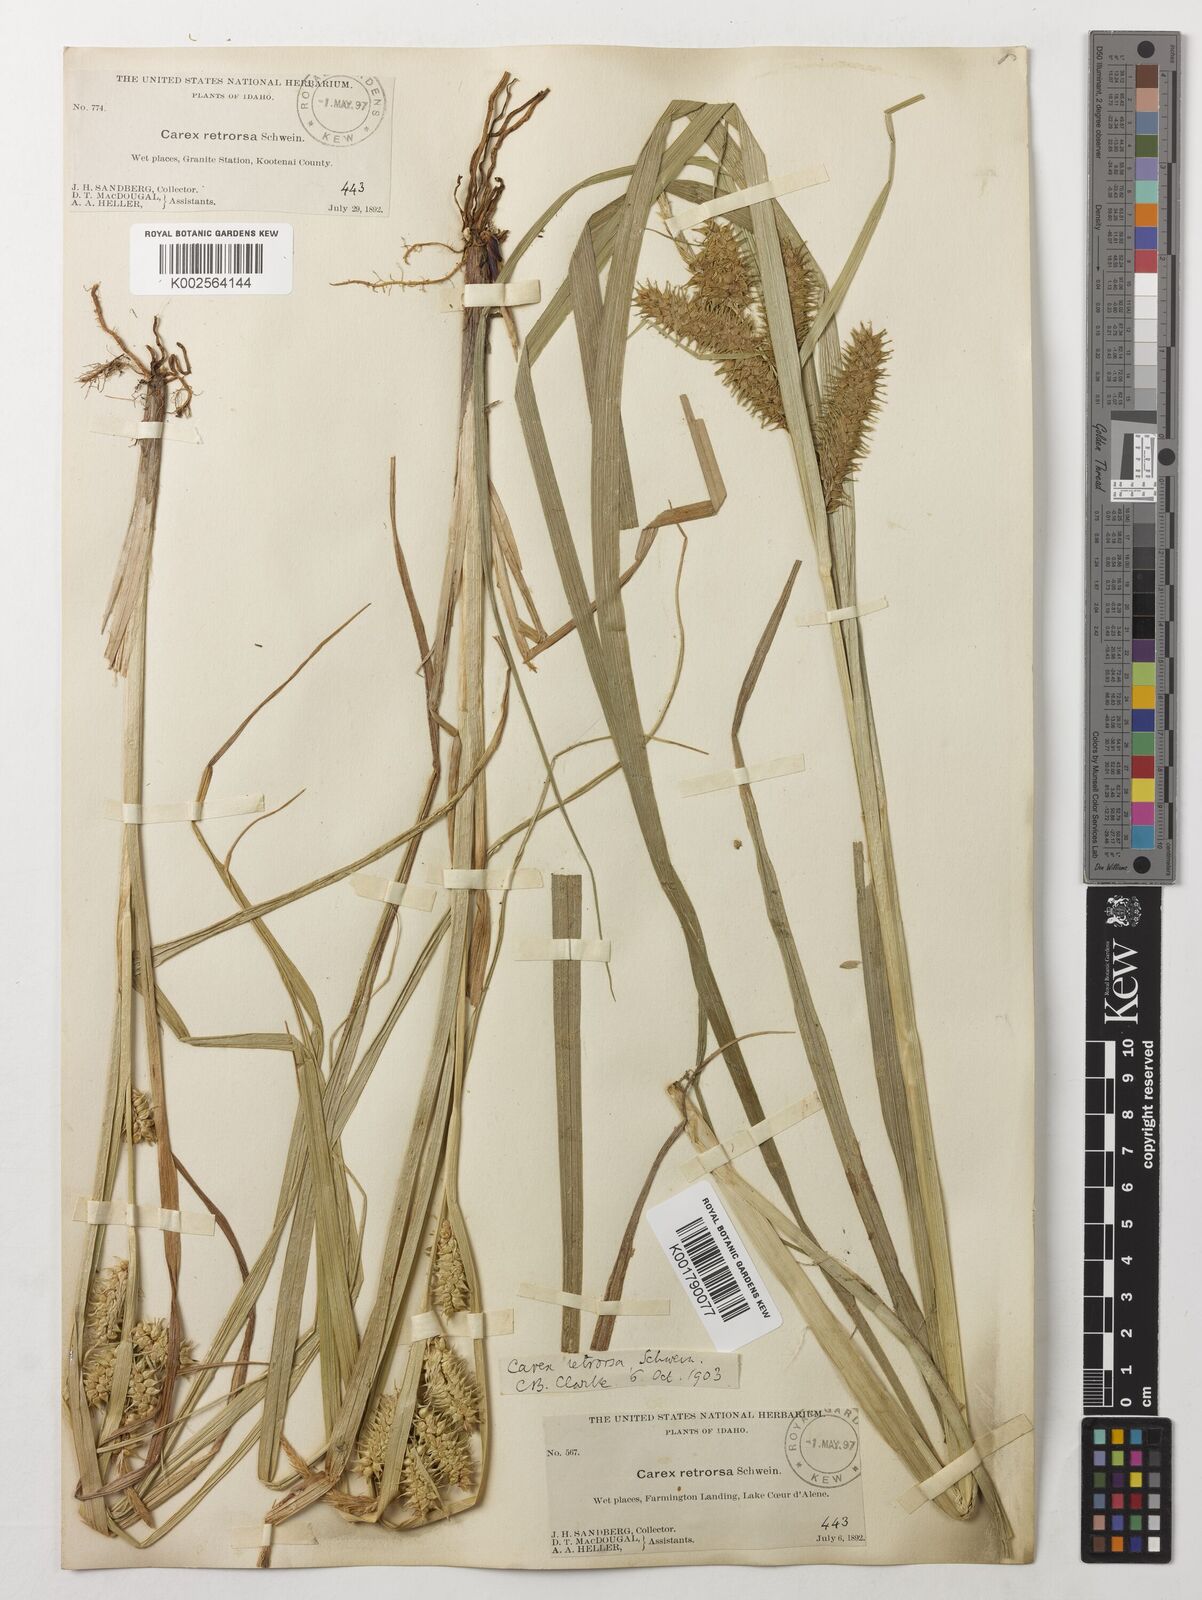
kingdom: Plantae
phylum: Tracheophyta
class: Liliopsida
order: Poales
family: Cyperaceae
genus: Carex
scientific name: Carex retrorsa
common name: Knot-sheath sedge
